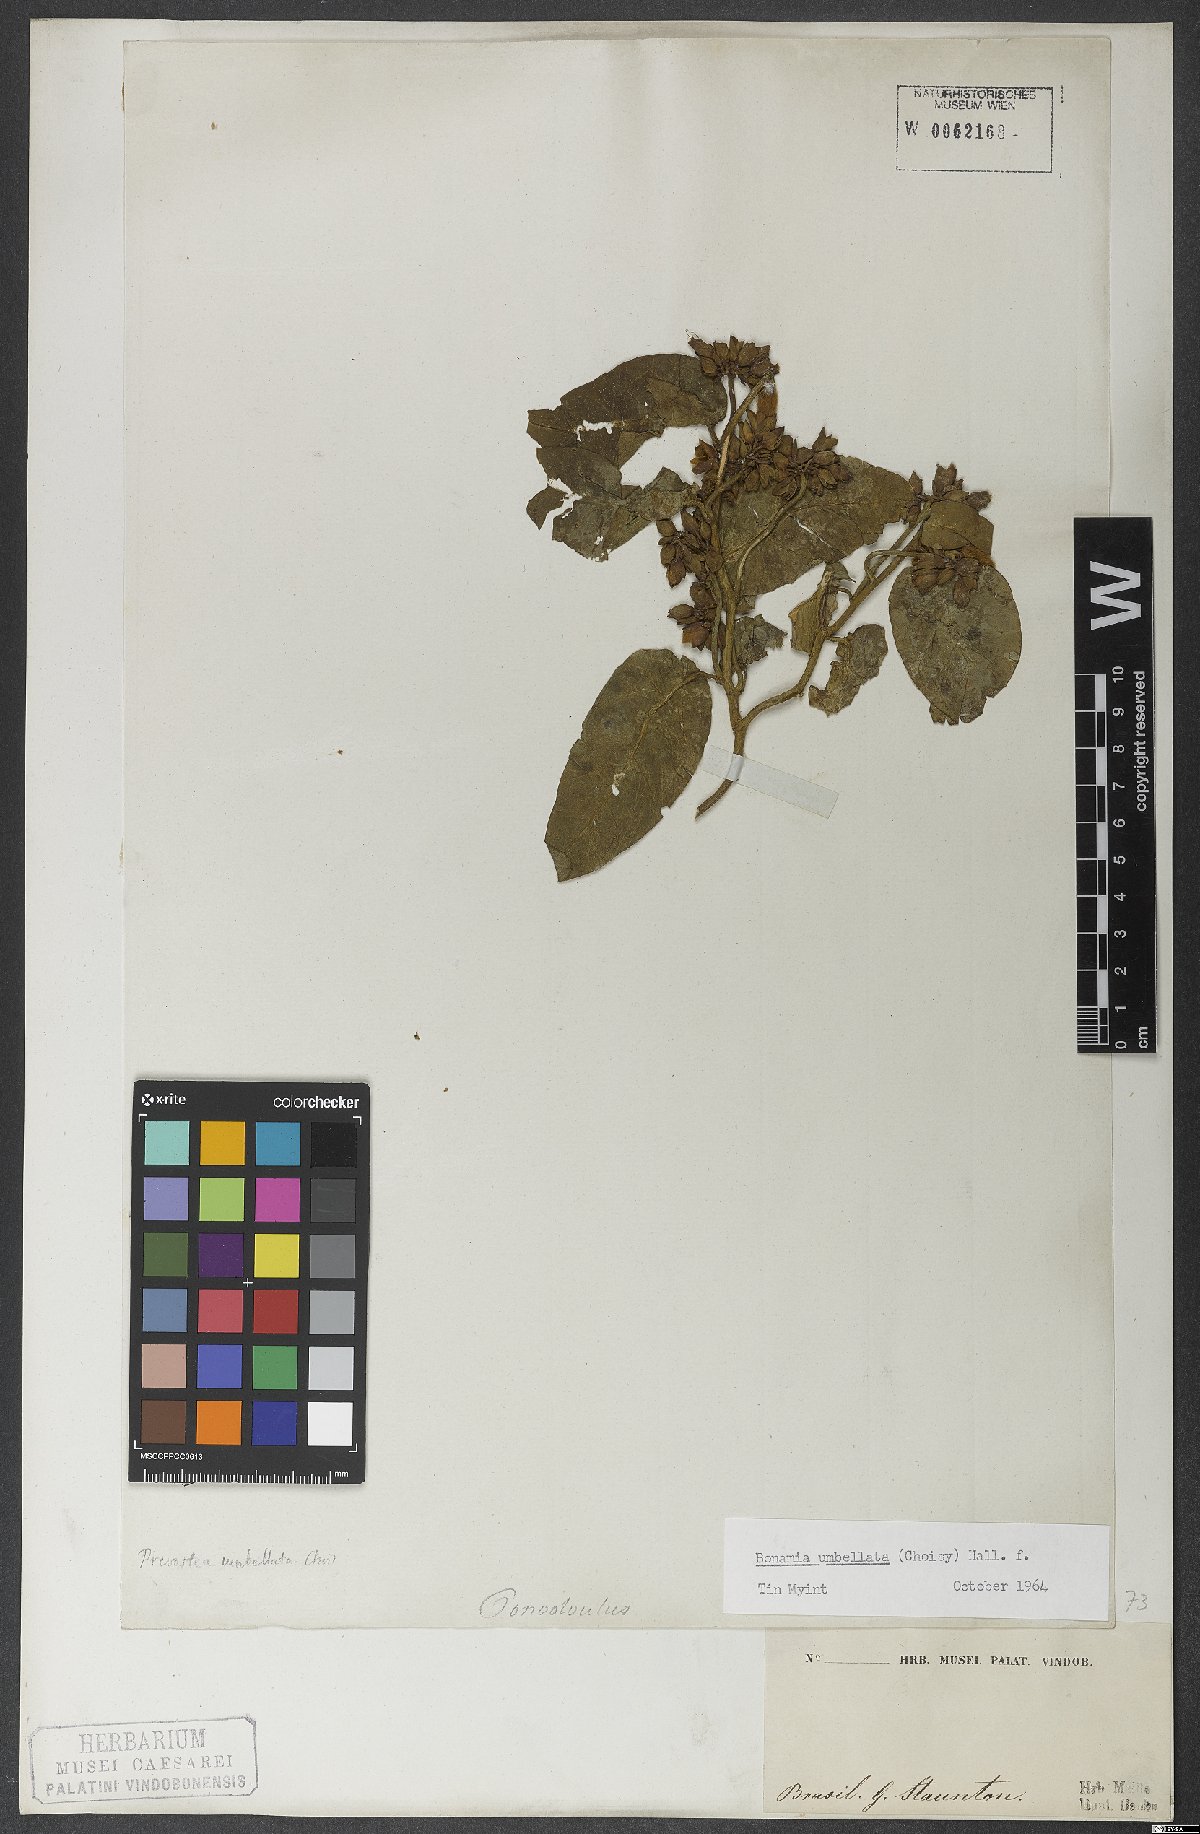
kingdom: Plantae
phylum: Tracheophyta
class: Magnoliopsida
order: Solanales
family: Convolvulaceae
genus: Bonamia
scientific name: Bonamia umbellata
